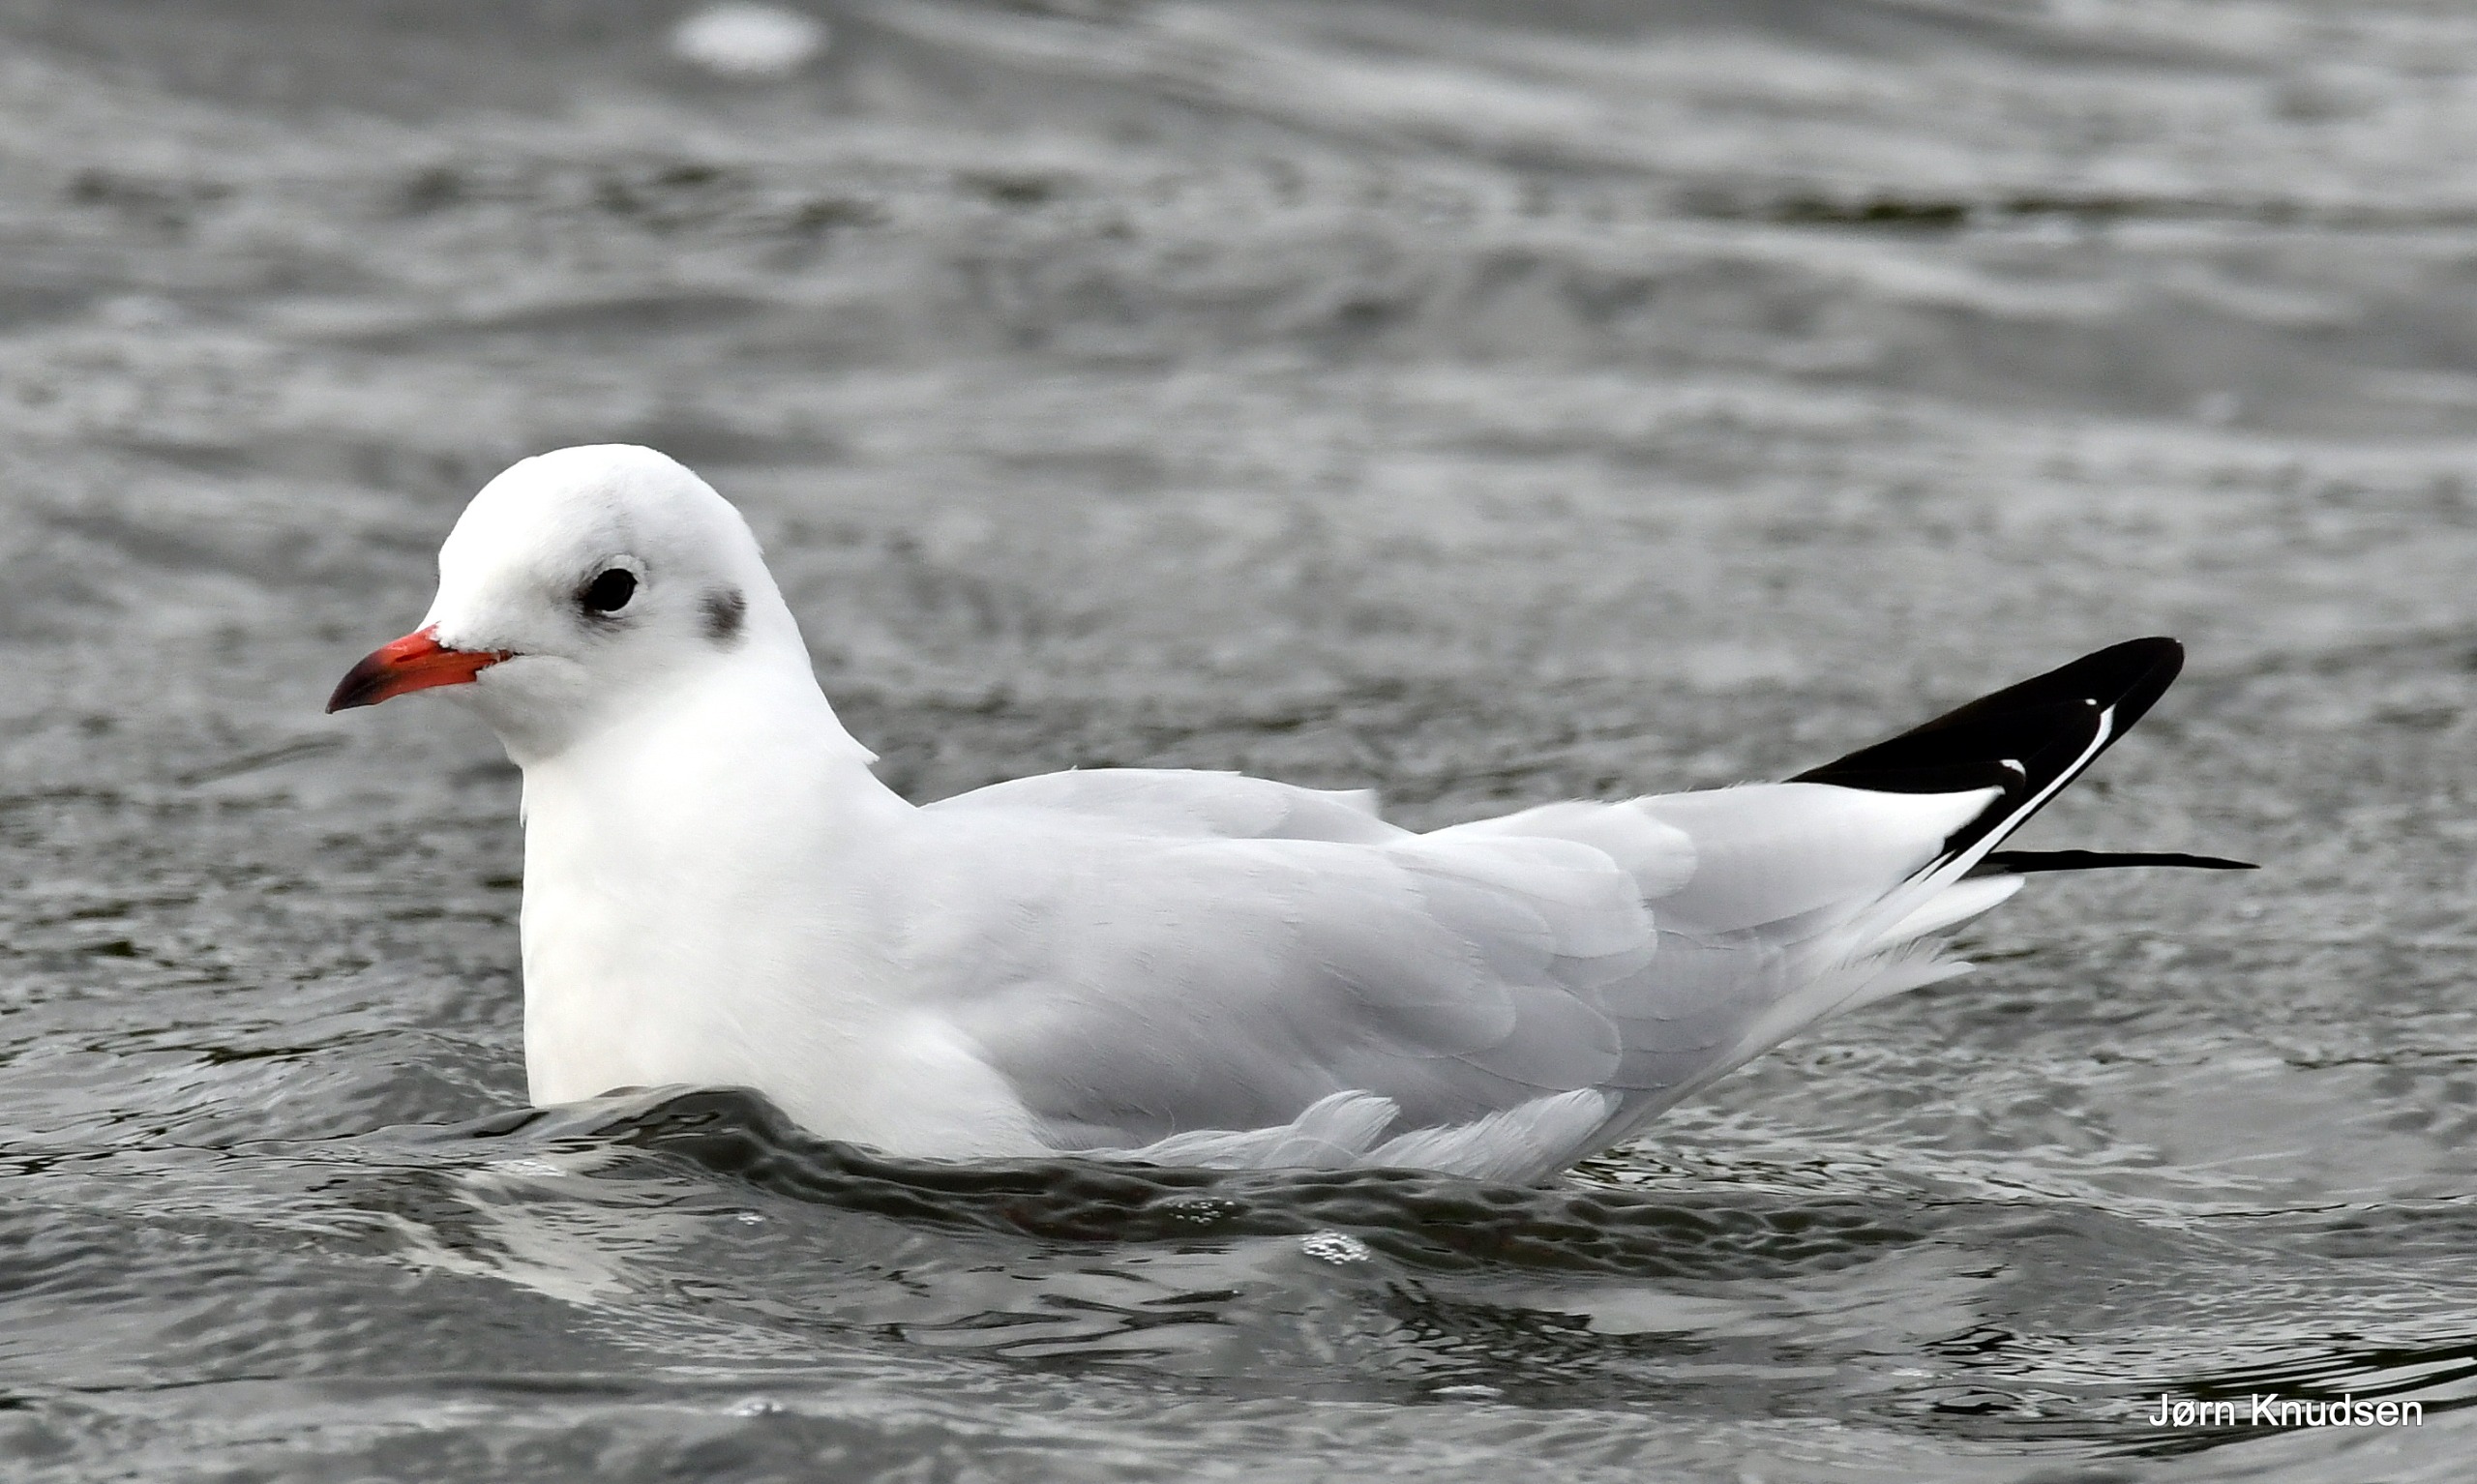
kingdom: Animalia
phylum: Chordata
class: Aves
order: Charadriiformes
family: Laridae
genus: Chroicocephalus
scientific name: Chroicocephalus ridibundus
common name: Hættemåge
